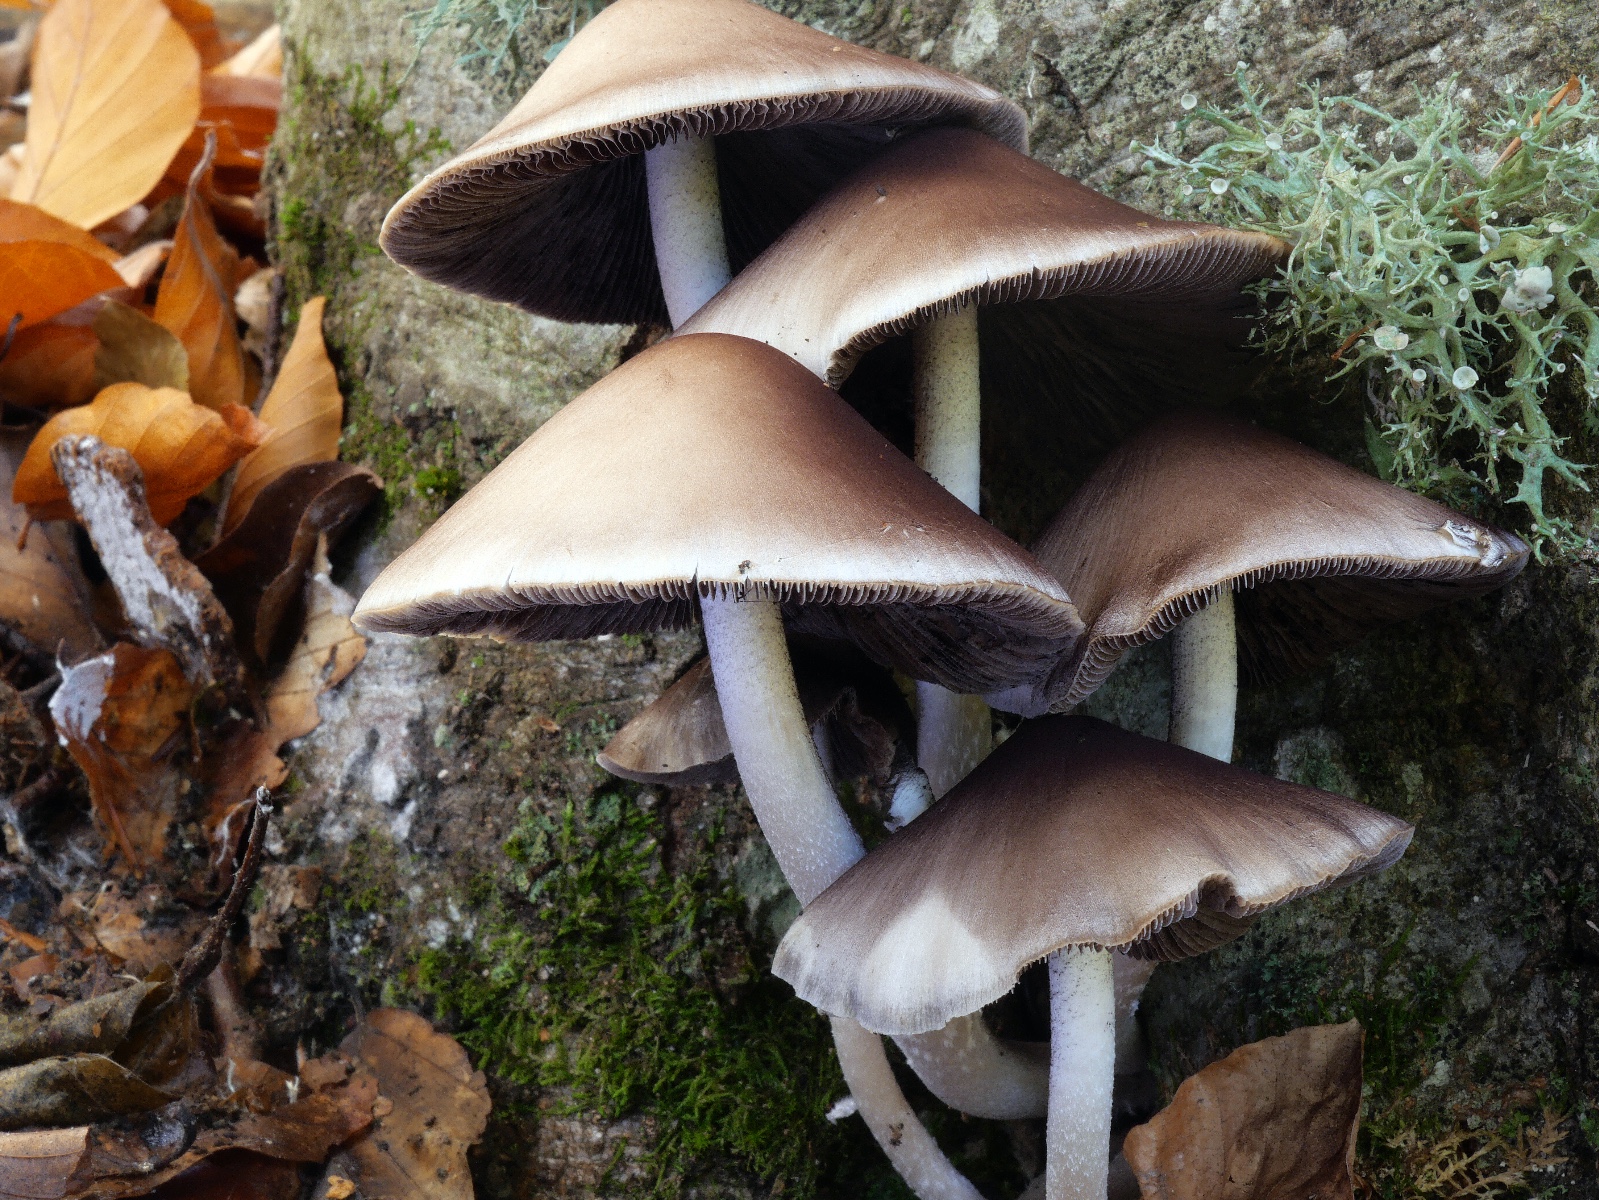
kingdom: Fungi
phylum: Basidiomycota
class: Agaricomycetes
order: Agaricales
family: Psathyrellaceae
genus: Candolleomyces
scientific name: Candolleomyces leucotephrus
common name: askehvid mørkhat
